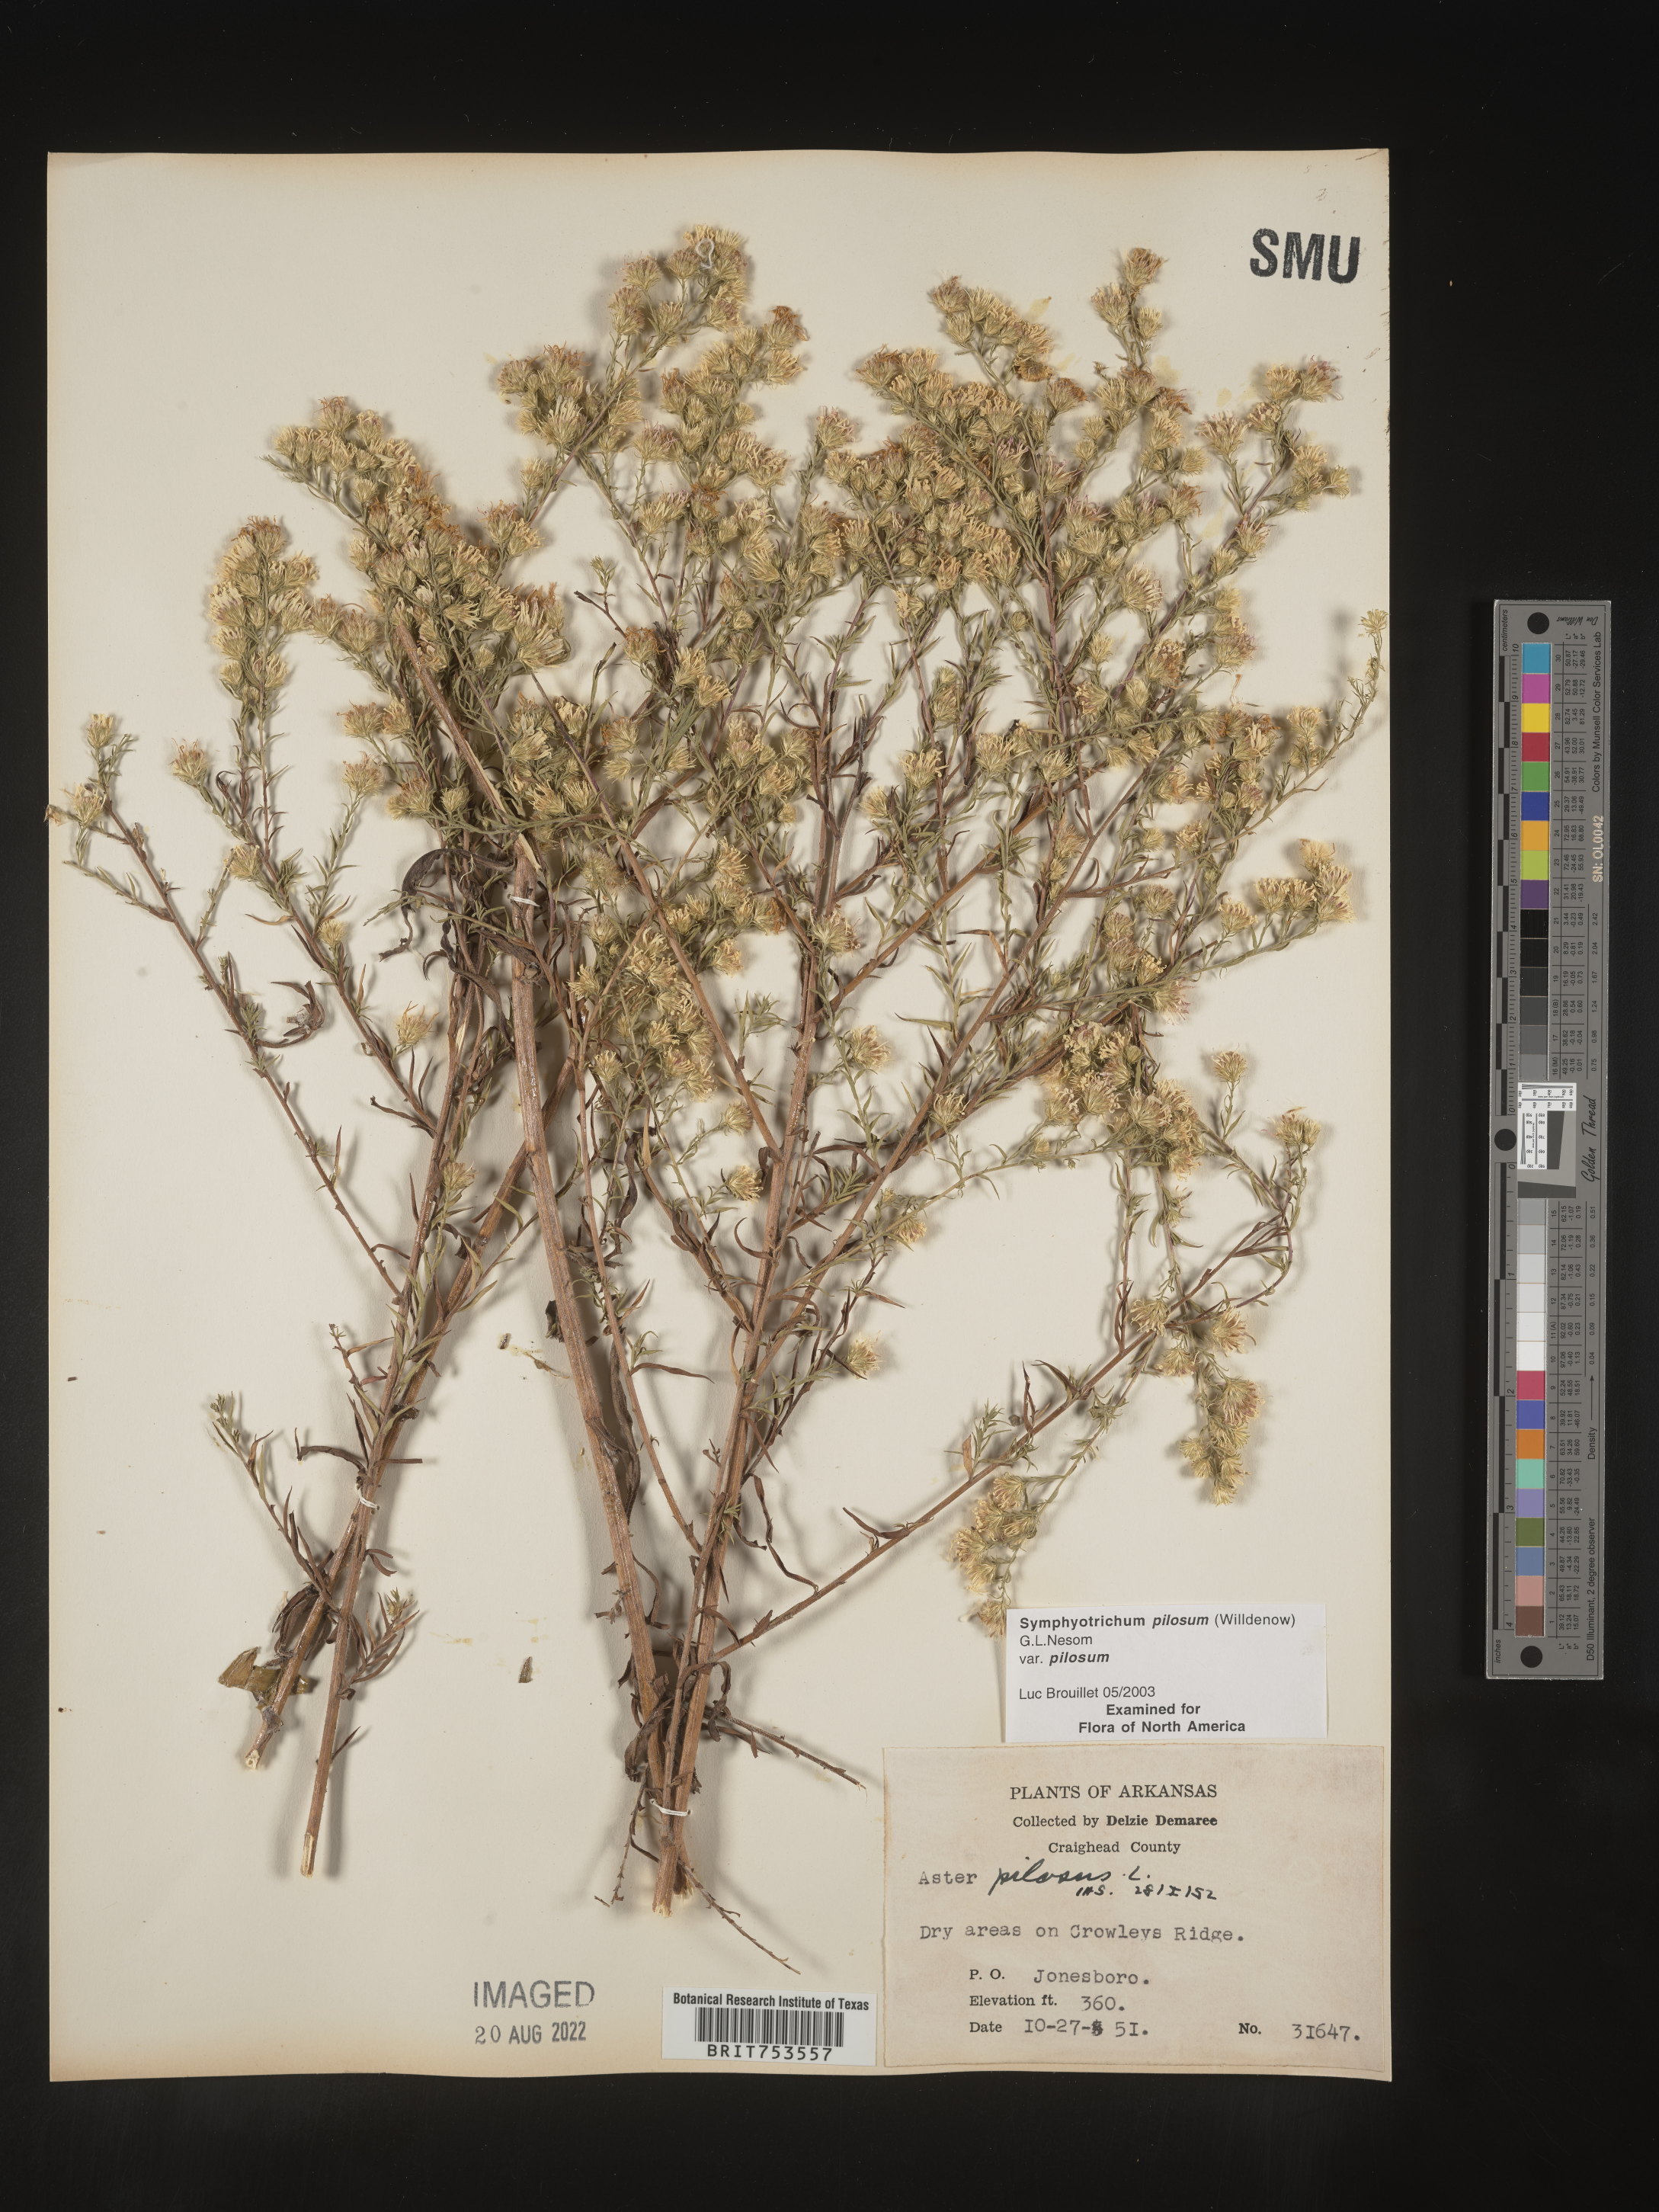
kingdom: Plantae
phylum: Tracheophyta
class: Magnoliopsida
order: Asterales
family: Asteraceae
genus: Symphyotrichum
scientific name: Symphyotrichum pilosum
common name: Awl aster
